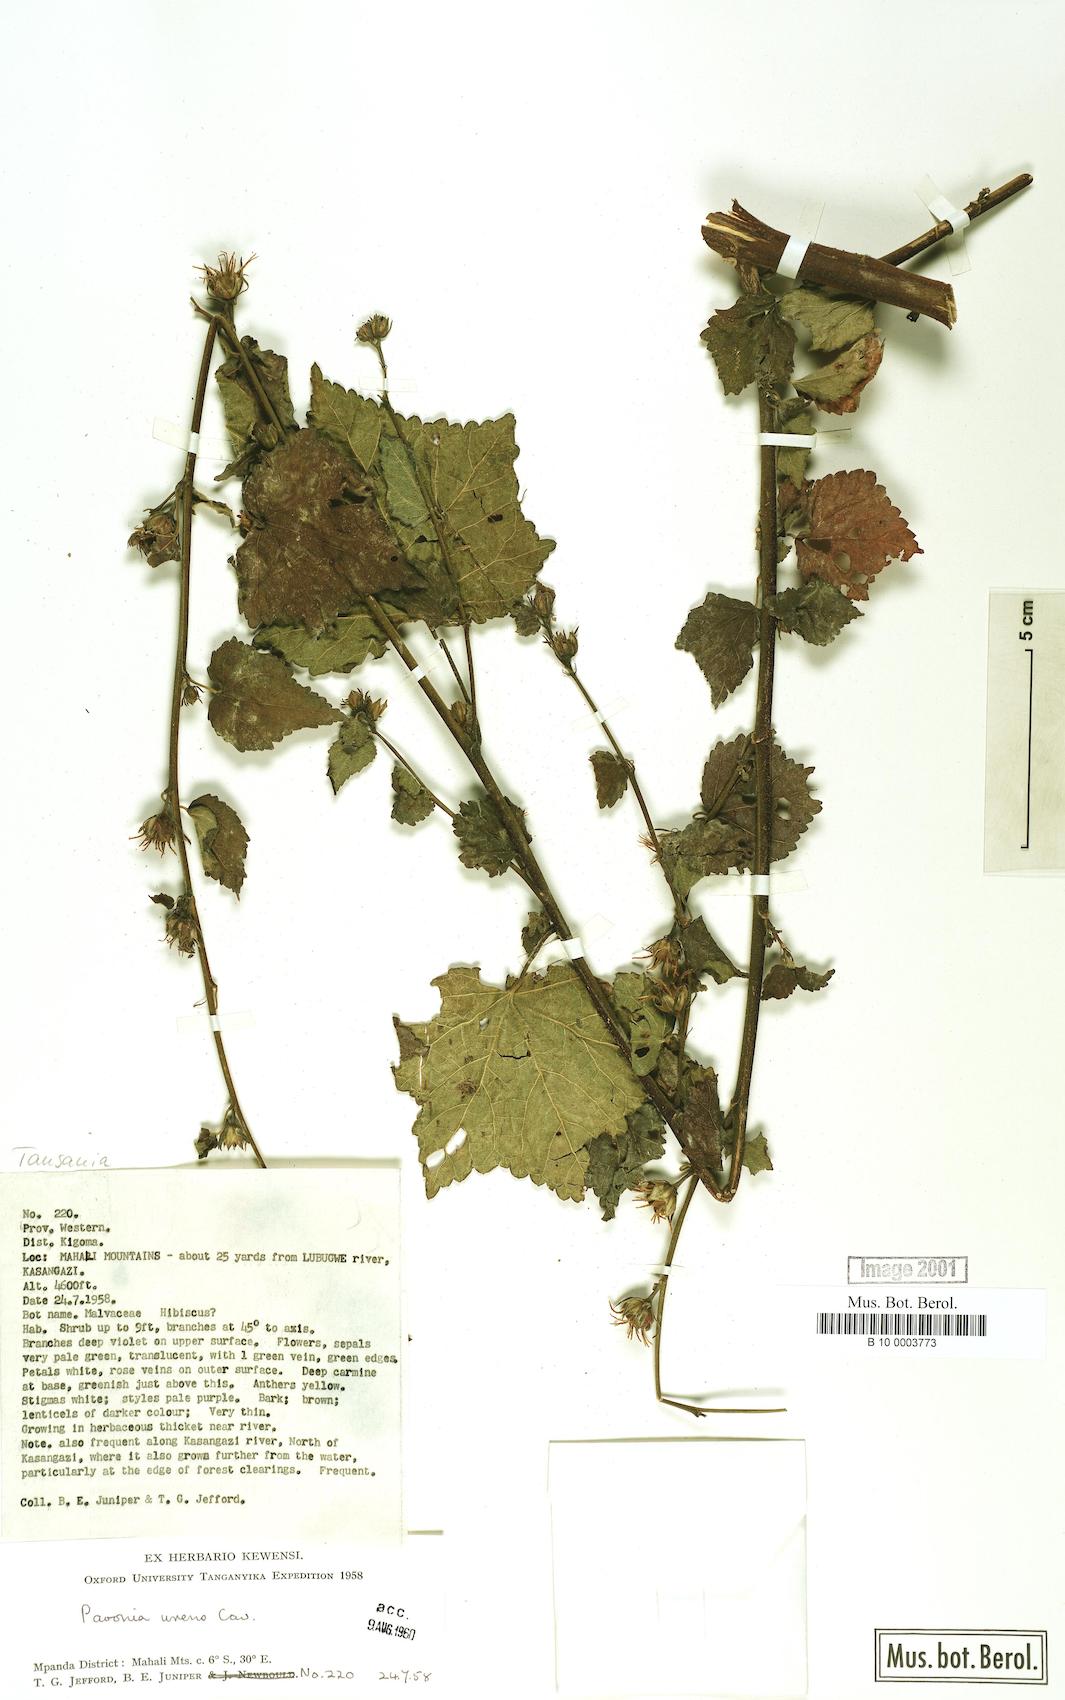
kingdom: Plantae
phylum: Tracheophyta
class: Magnoliopsida
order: Malvales
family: Malvaceae
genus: Pavonia
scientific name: Pavonia urens
